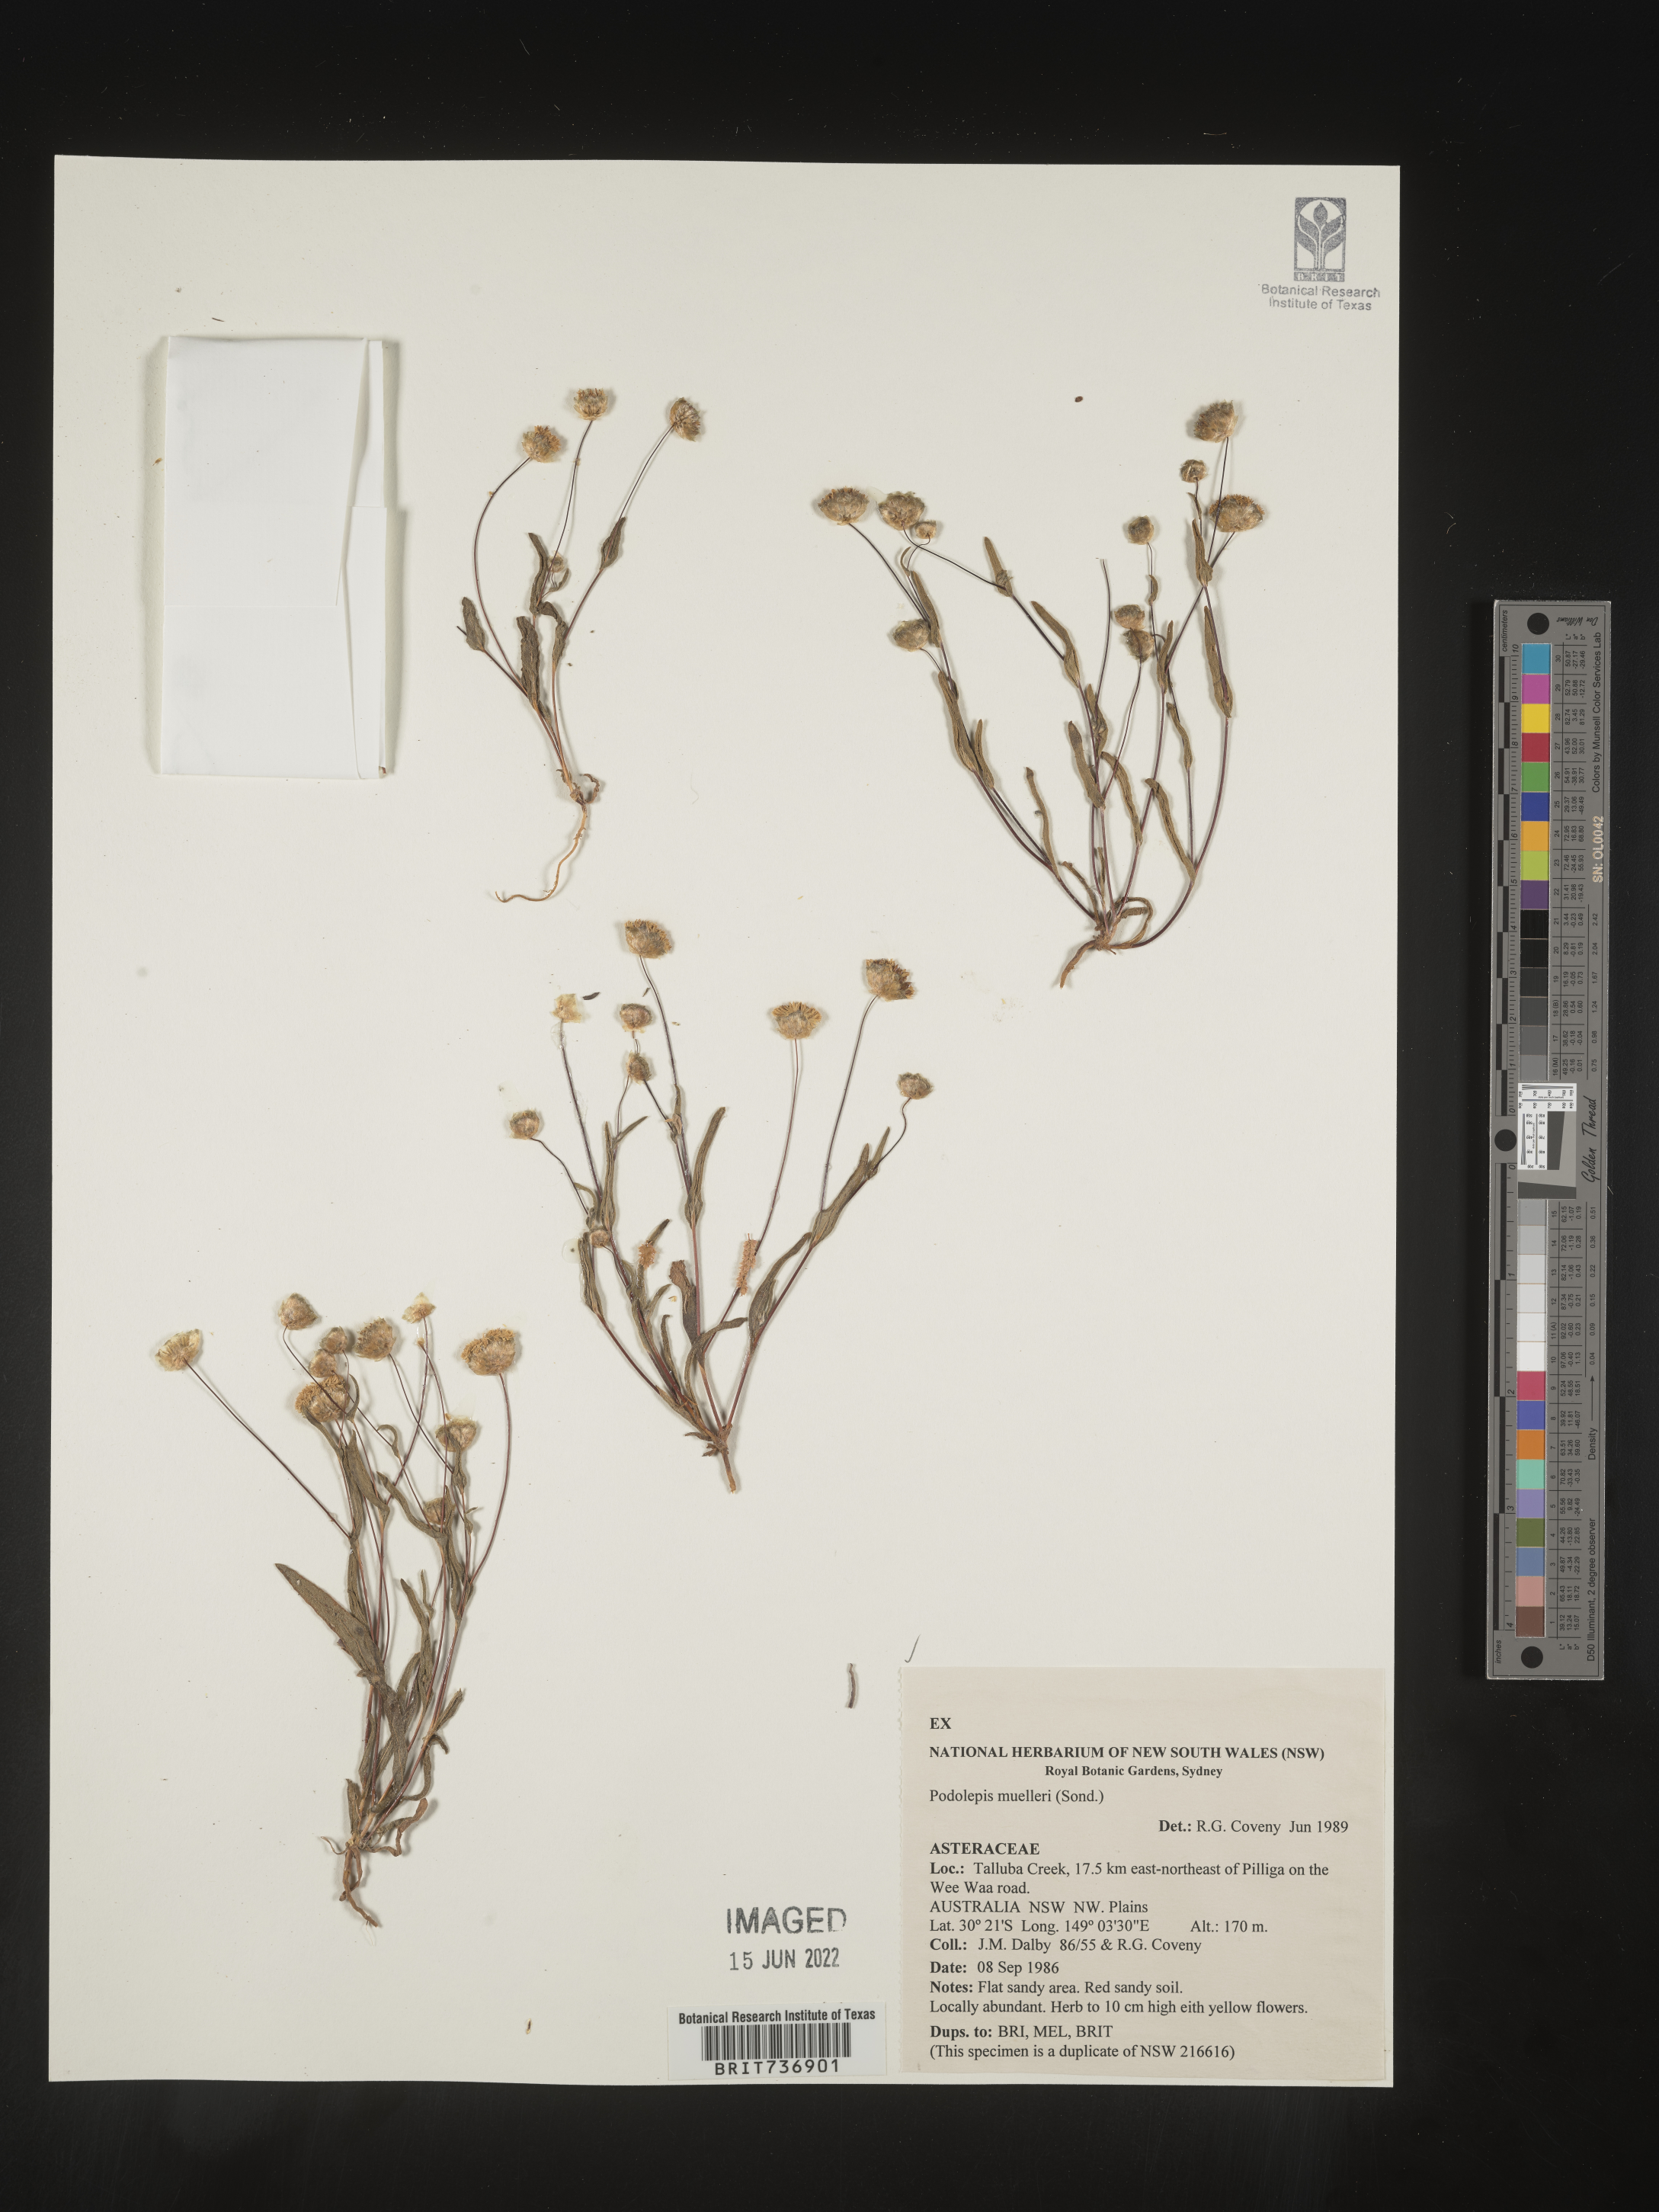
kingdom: Plantae
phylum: Tracheophyta
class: Magnoliopsida
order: Asterales
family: Asteraceae
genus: Podolepis
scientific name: Podolepis
